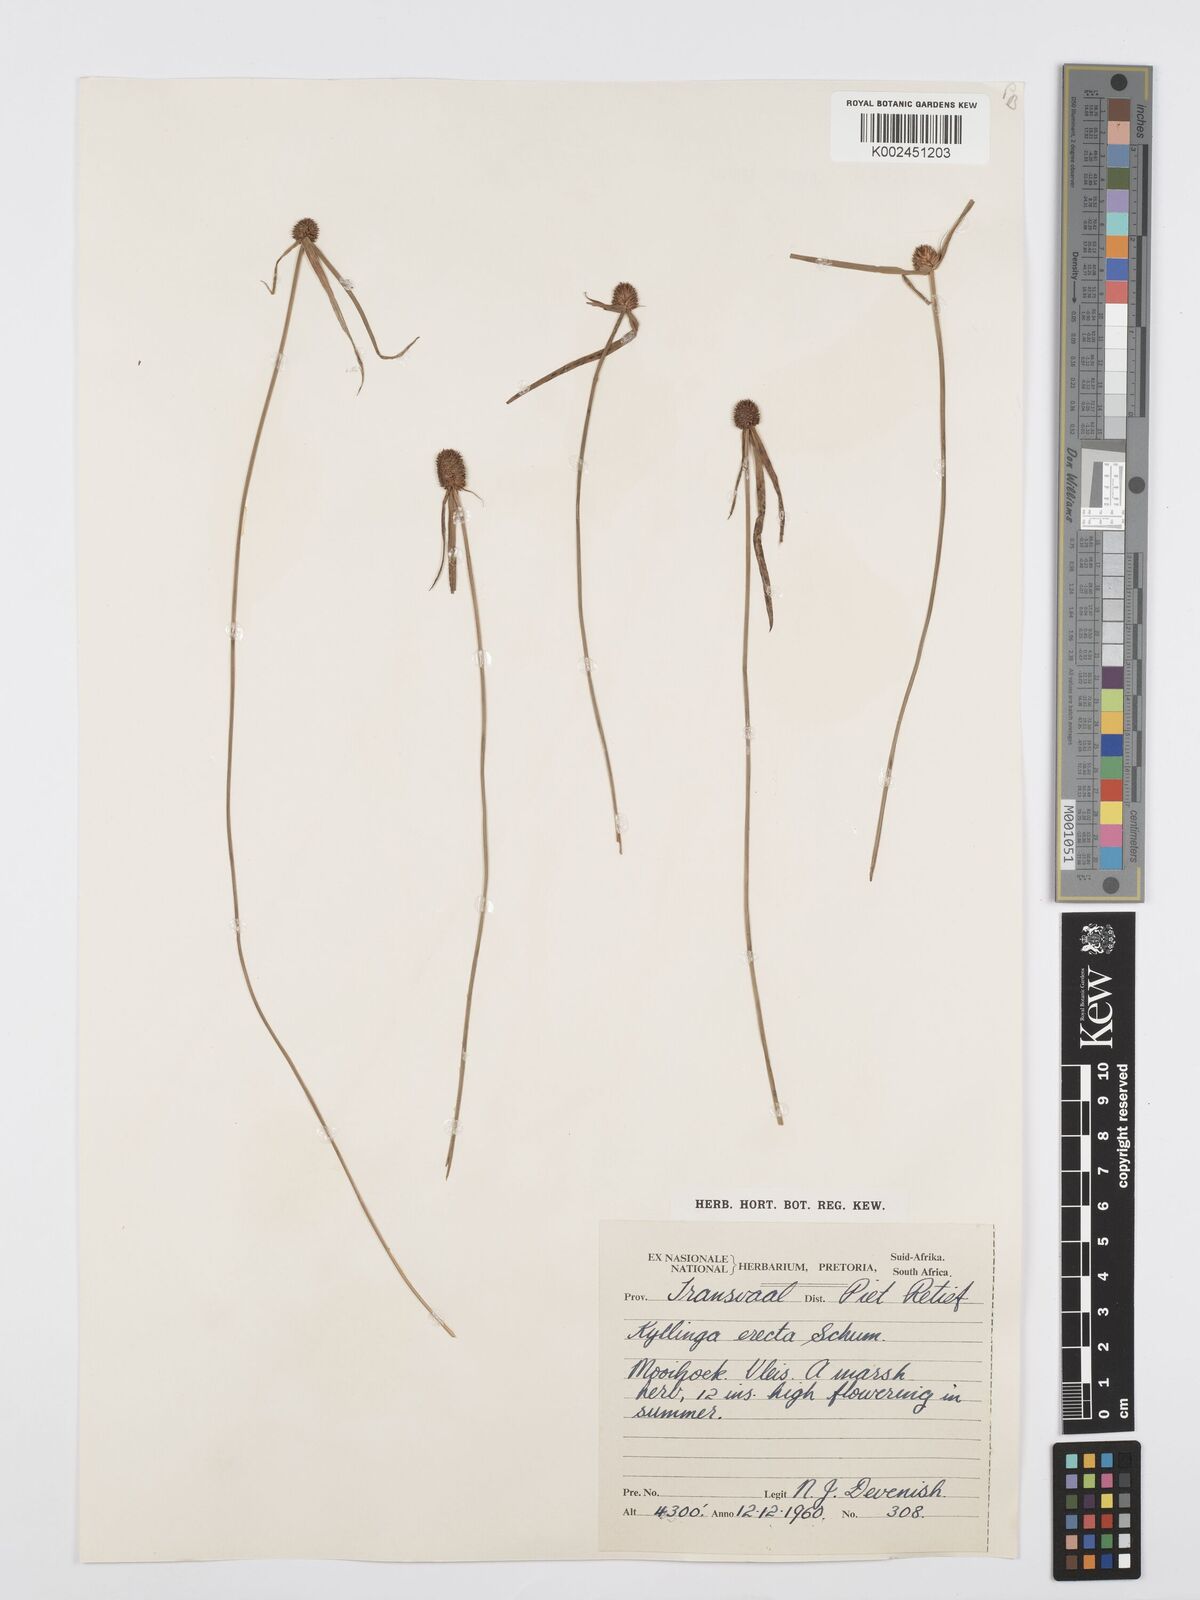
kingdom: Plantae
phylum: Tracheophyta
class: Liliopsida
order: Poales
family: Cyperaceae
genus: Cyperus
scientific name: Cyperus melanospermus
